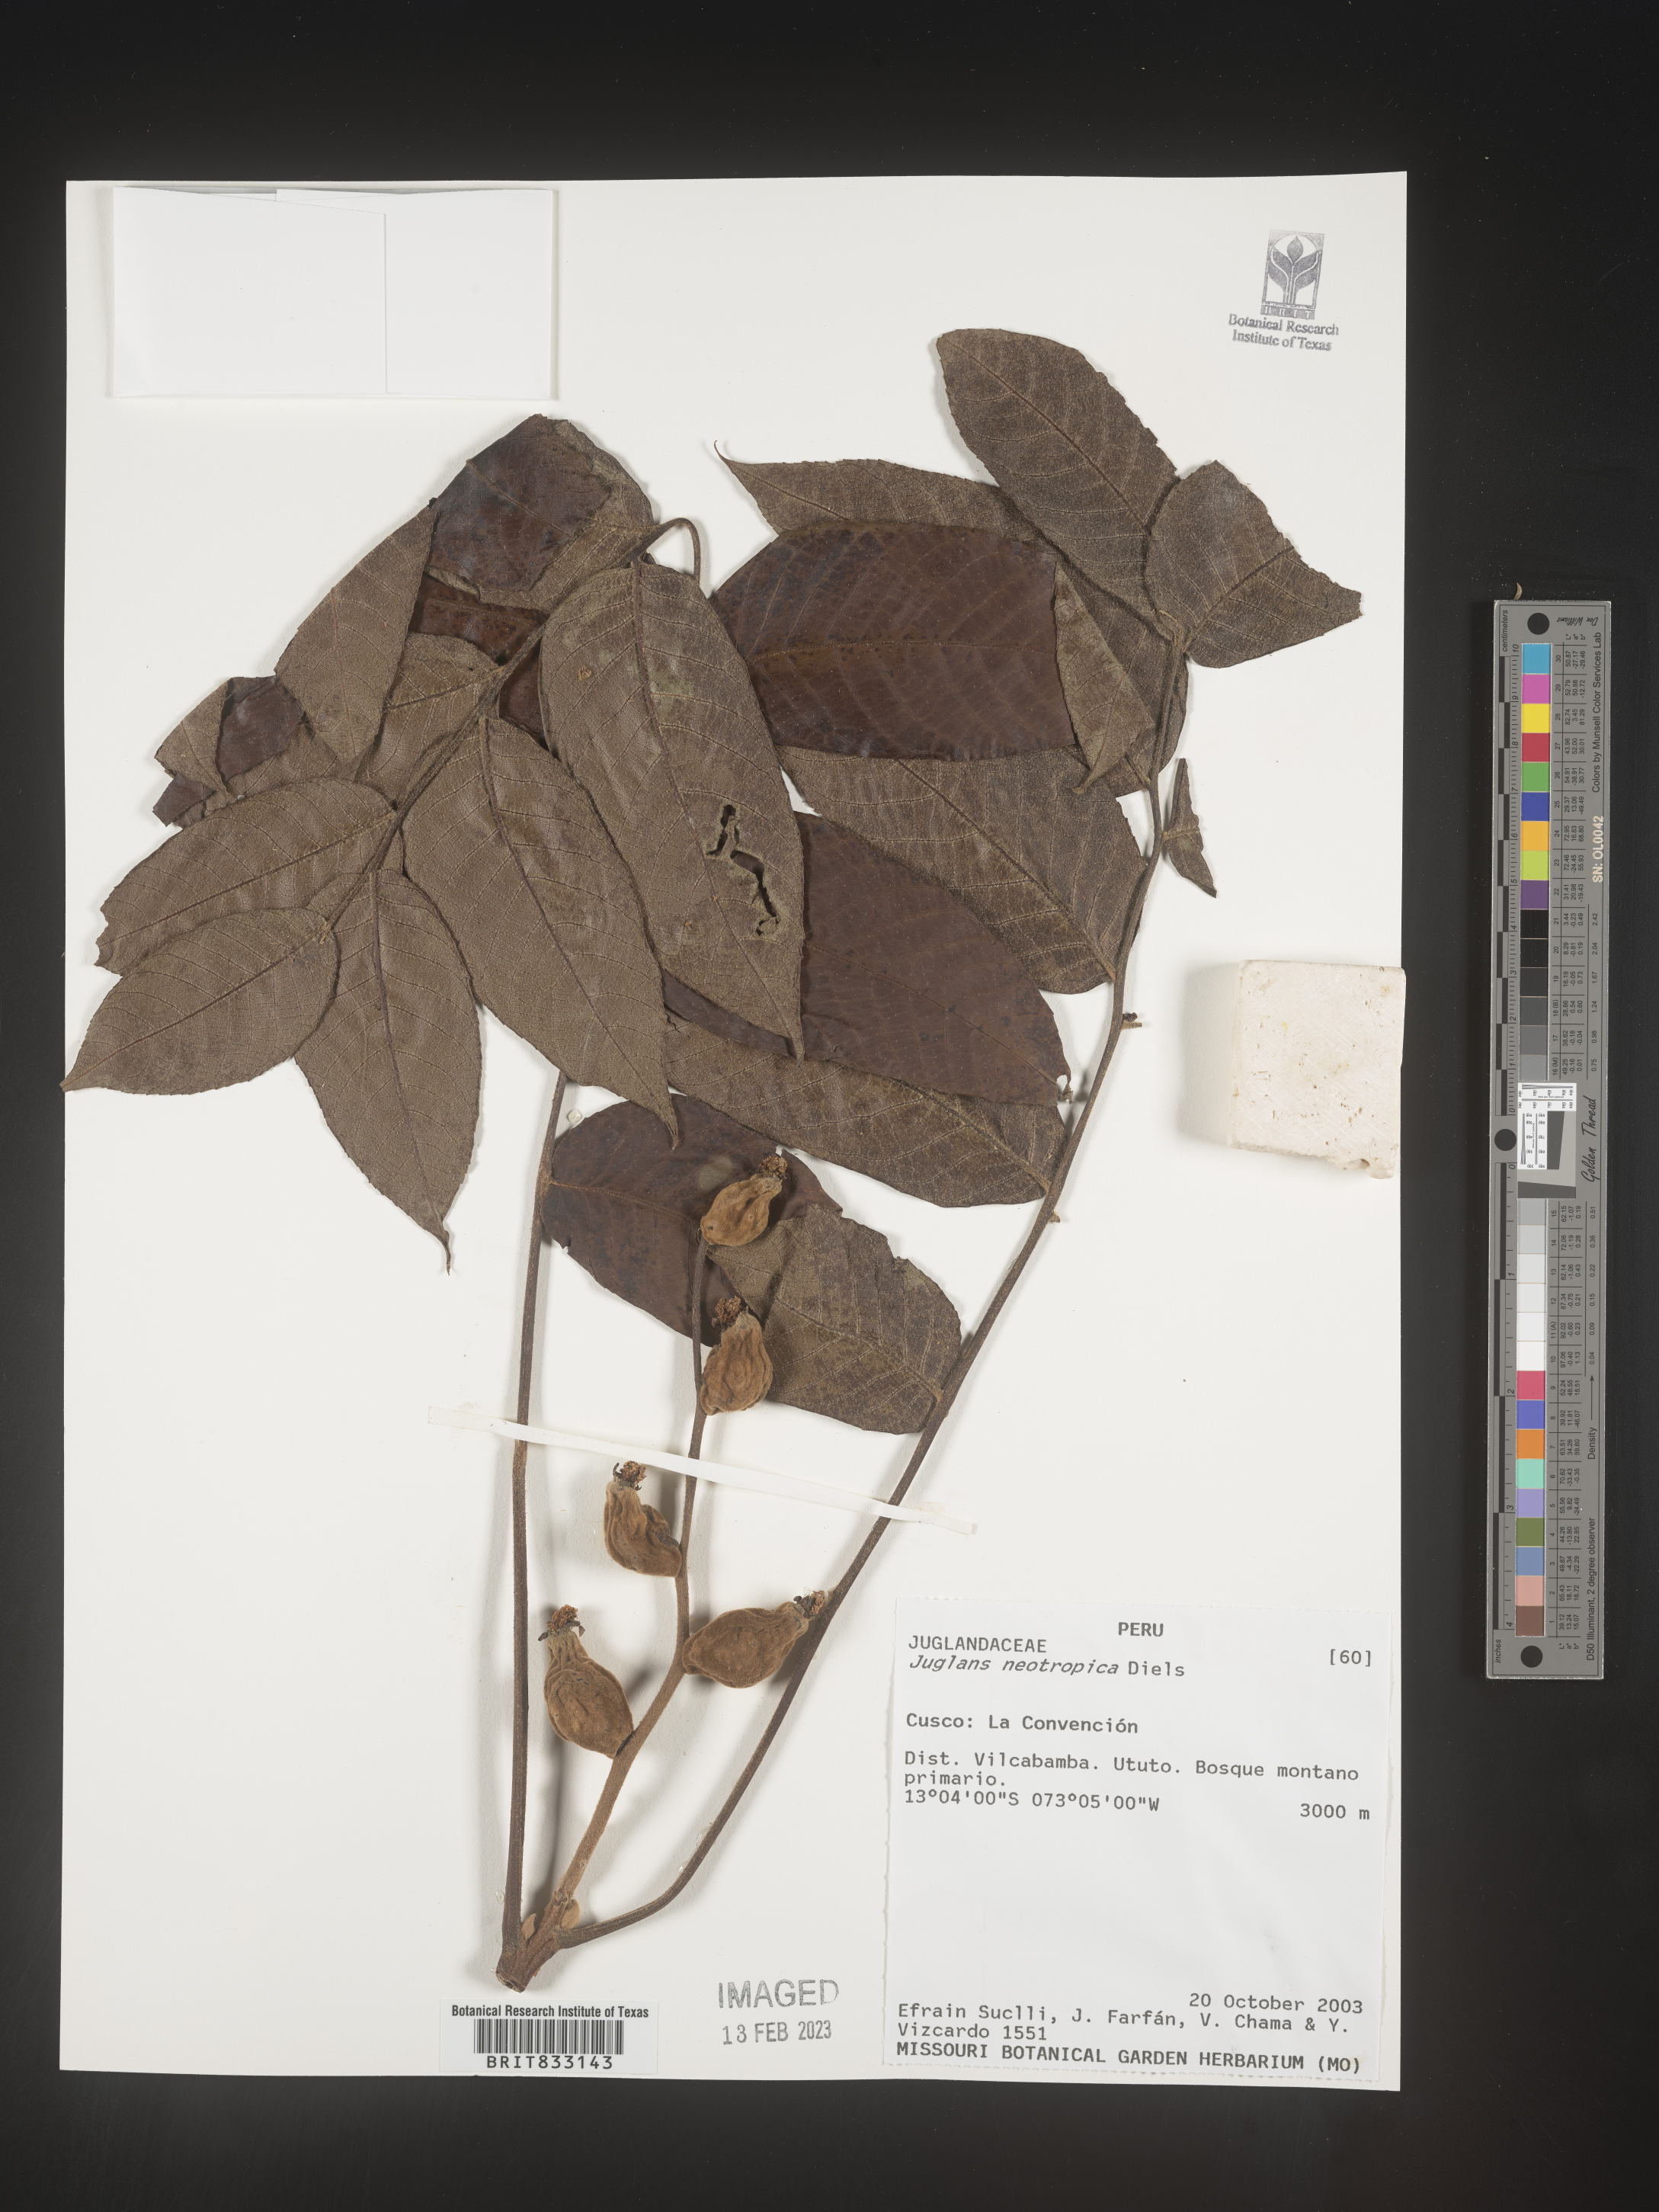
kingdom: Plantae
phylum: Tracheophyta
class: Magnoliopsida
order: Fagales
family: Juglandaceae
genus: Juglans
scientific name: Juglans neotropica
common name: Andean walnut
